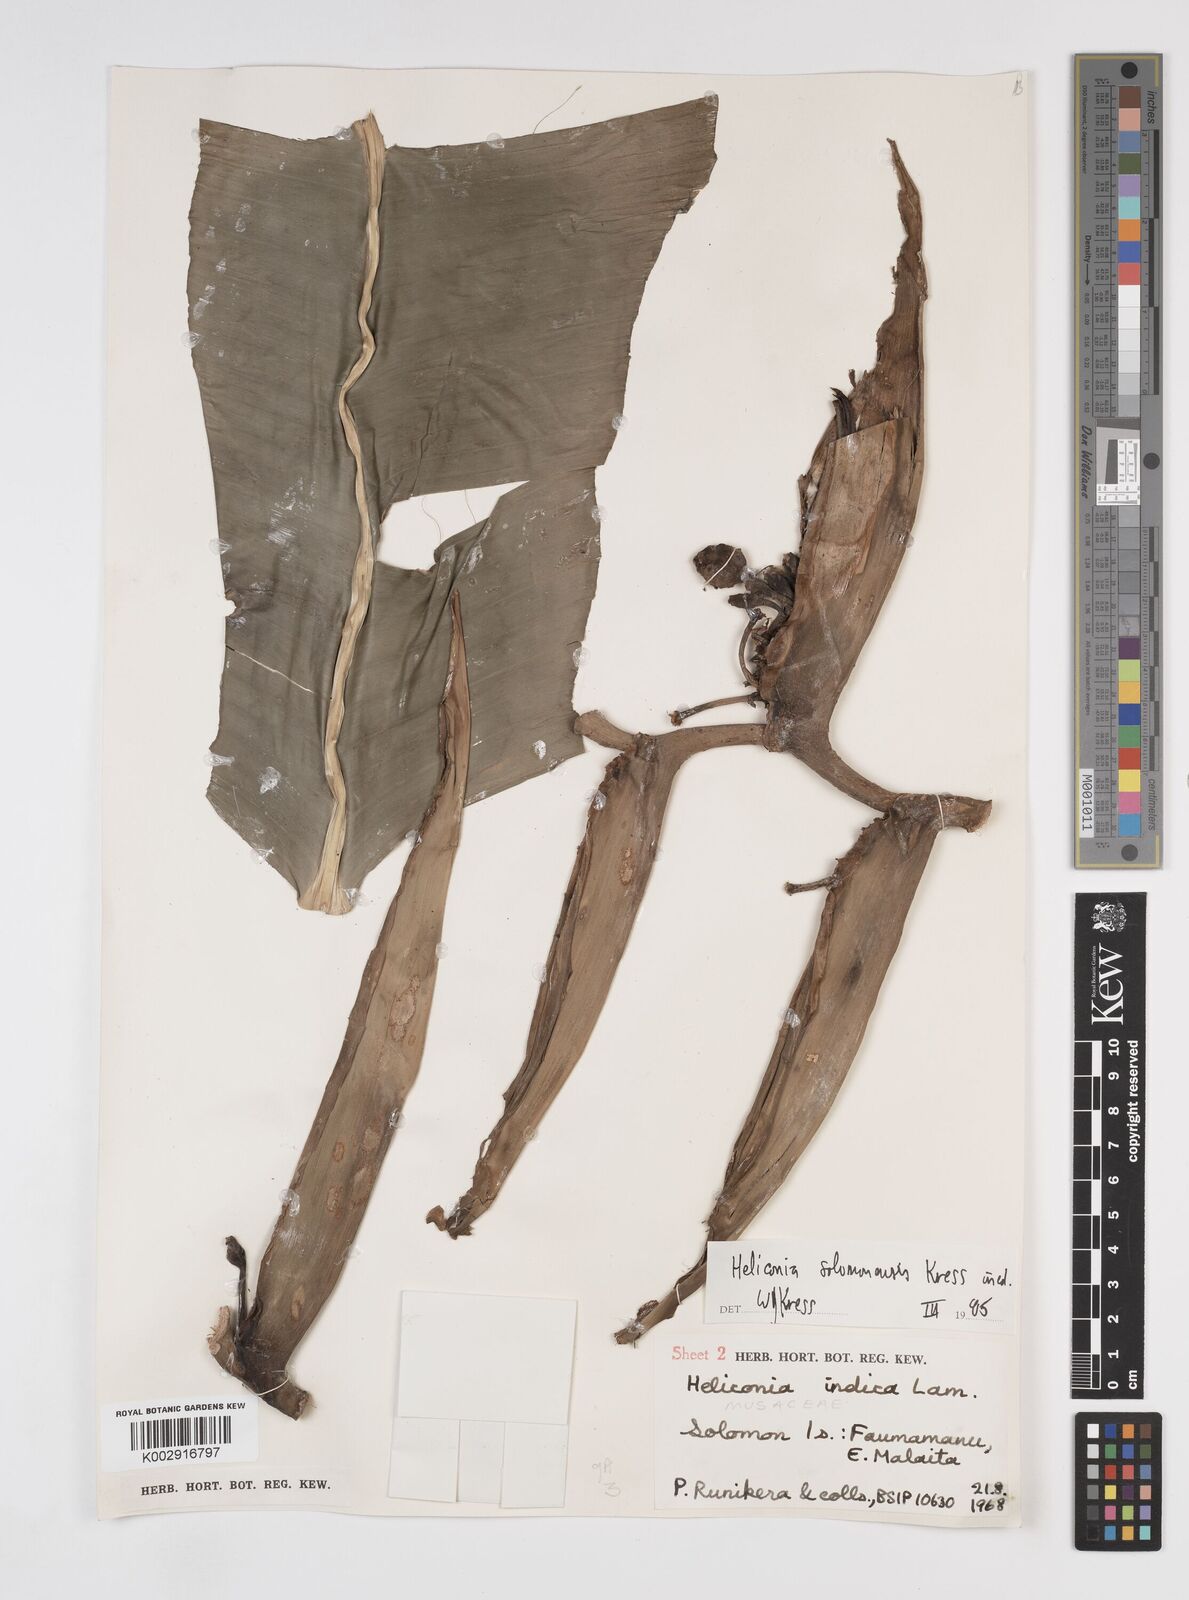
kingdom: Plantae
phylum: Tracheophyta
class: Liliopsida
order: Zingiberales
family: Heliconiaceae
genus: Heliconia
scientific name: Heliconia solomonensis
